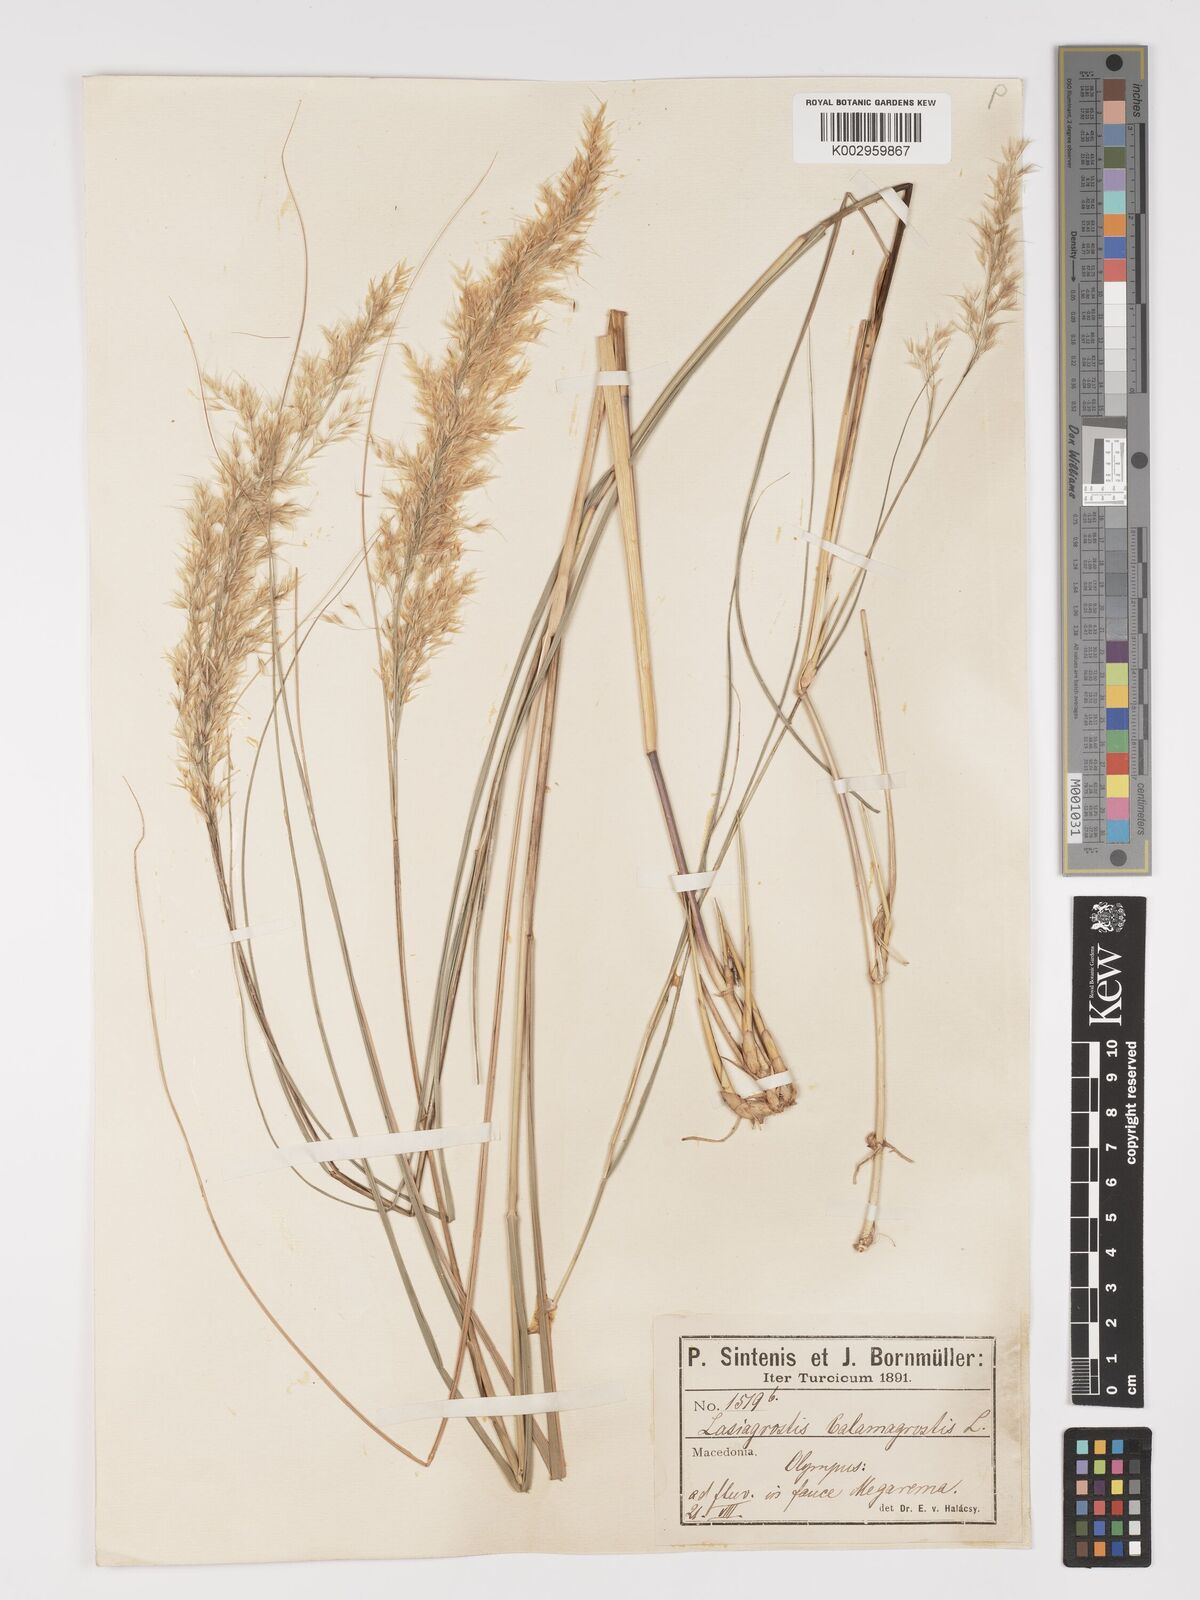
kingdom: Plantae
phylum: Tracheophyta
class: Liliopsida
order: Poales
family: Poaceae
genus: Achnatherum
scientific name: Achnatherum calamagrostis
